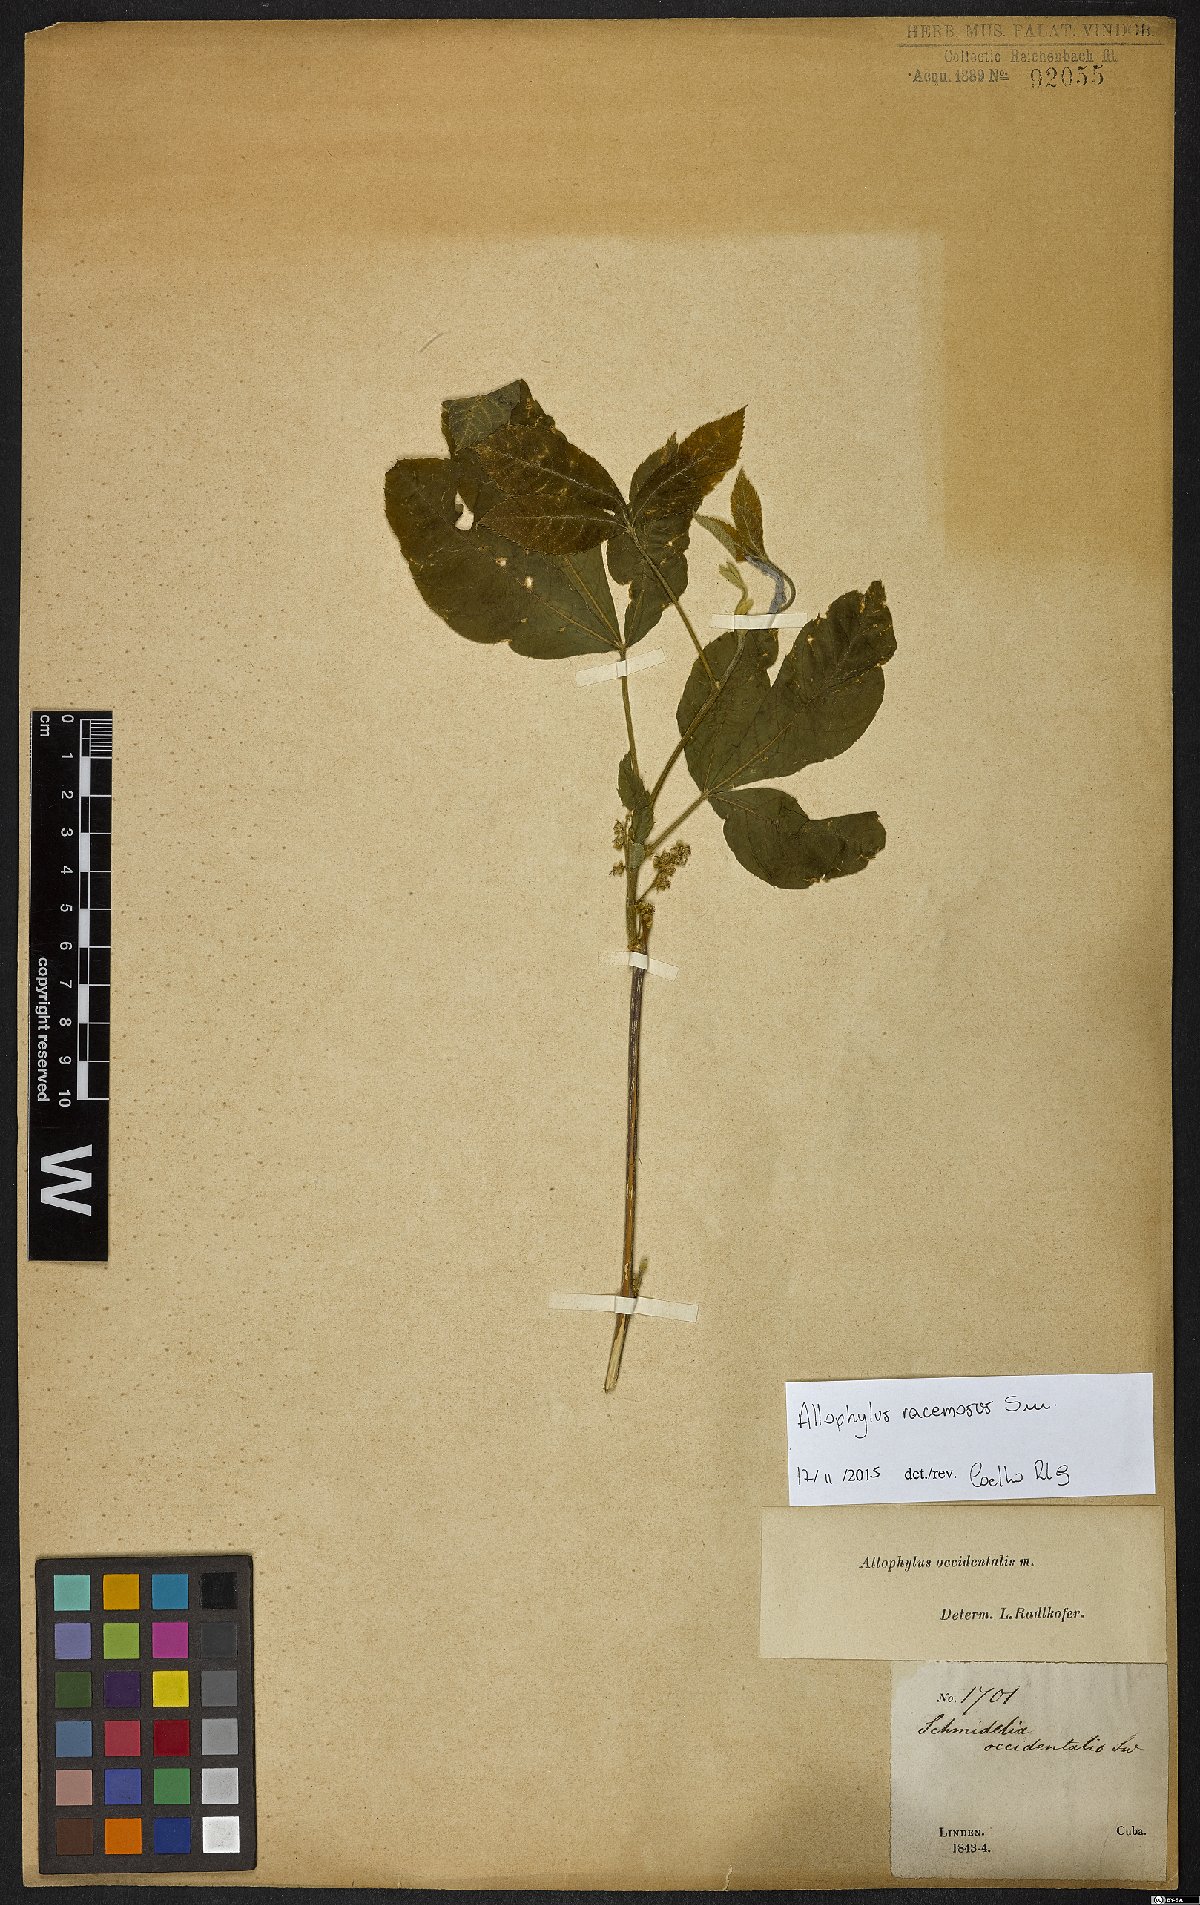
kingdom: Plantae
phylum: Tracheophyta
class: Magnoliopsida
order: Sapindales
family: Sapindaceae
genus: Allophylus
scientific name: Allophylus racemosus
